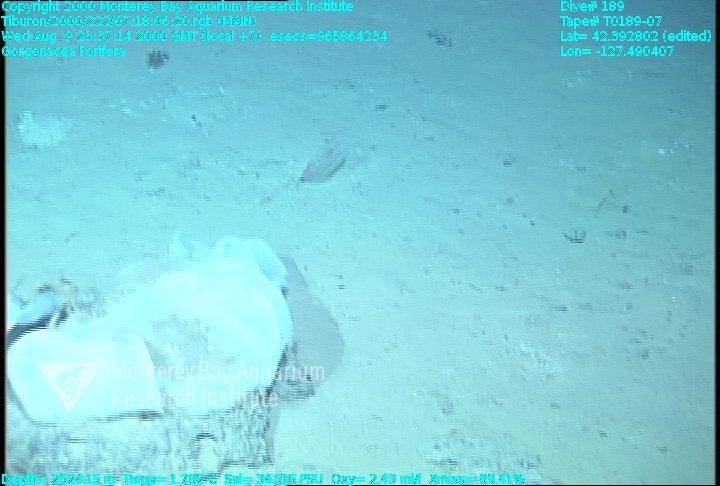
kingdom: Animalia
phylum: Porifera
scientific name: Porifera
